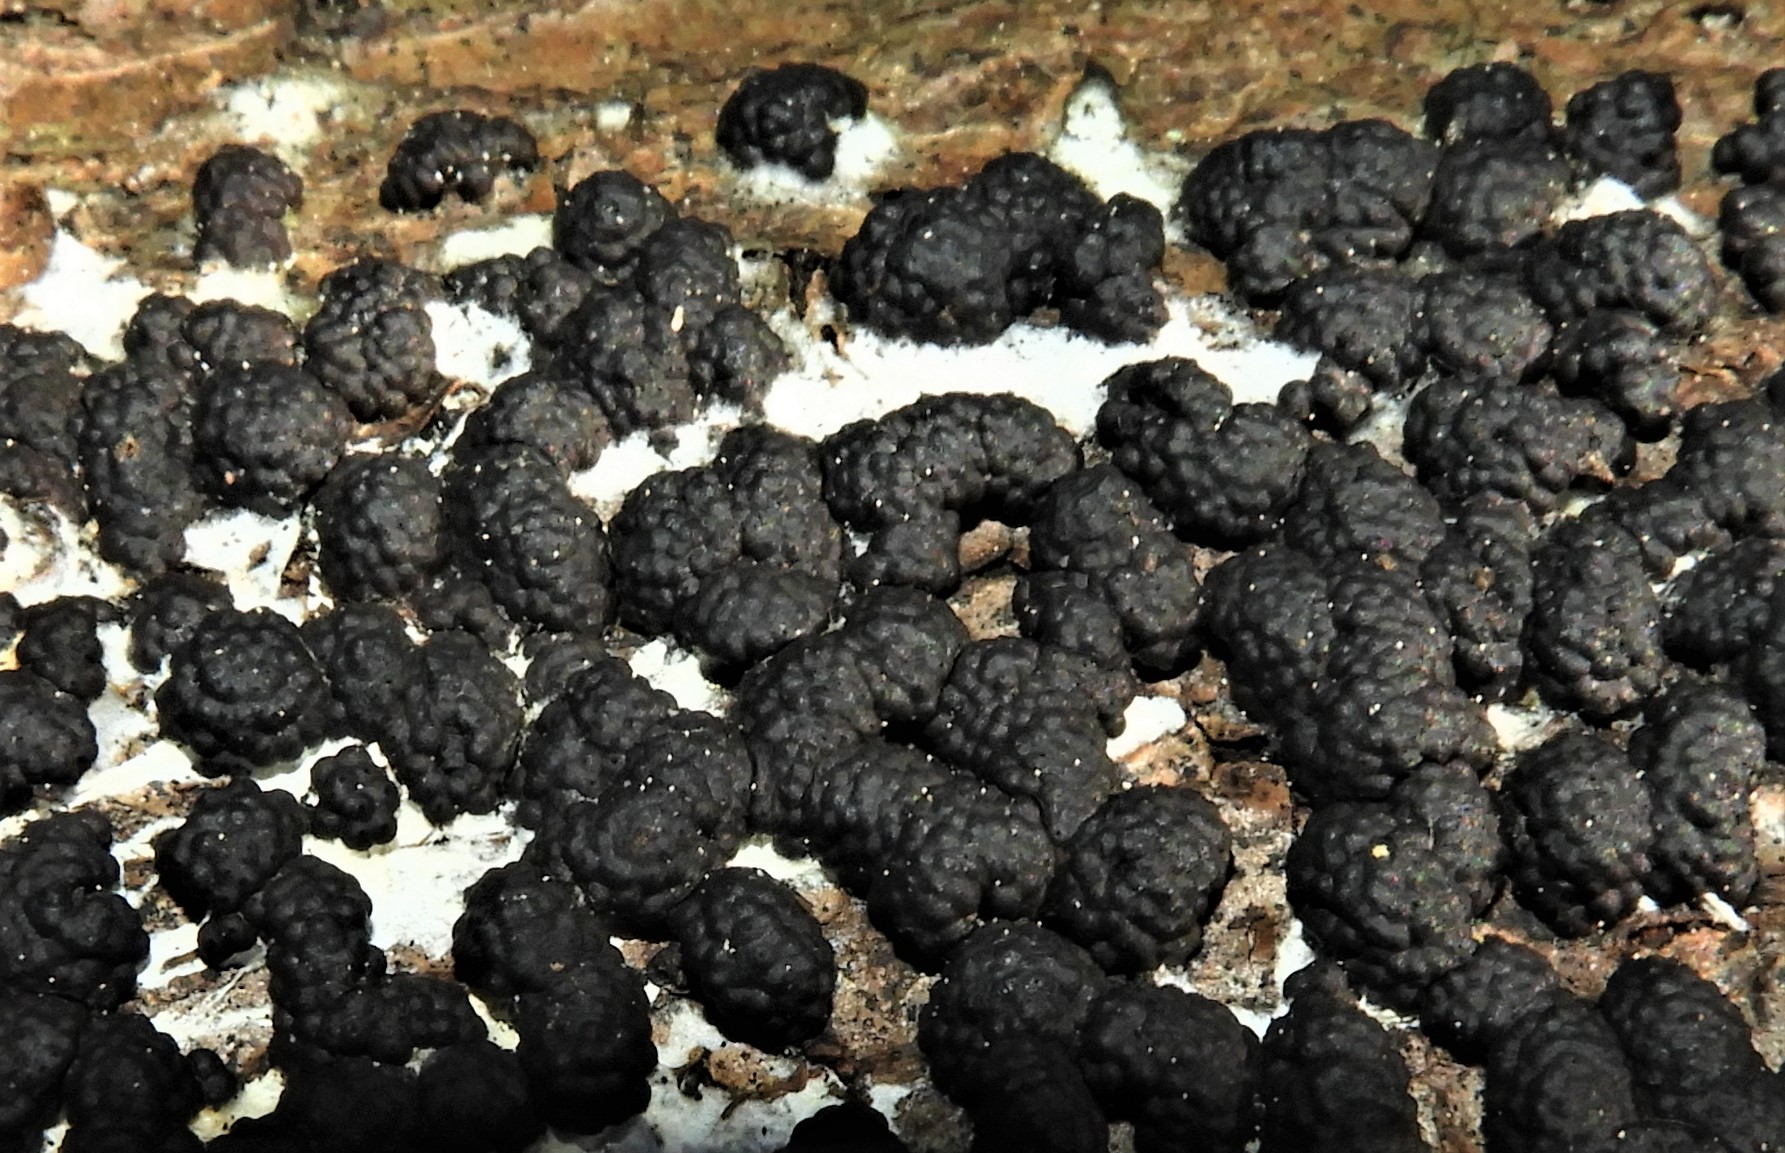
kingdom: Fungi
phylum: Ascomycota
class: Sordariomycetes
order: Xylariales
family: Hypoxylaceae
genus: Jackrogersella
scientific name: Jackrogersella multiformis
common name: foranderlig kulbær
